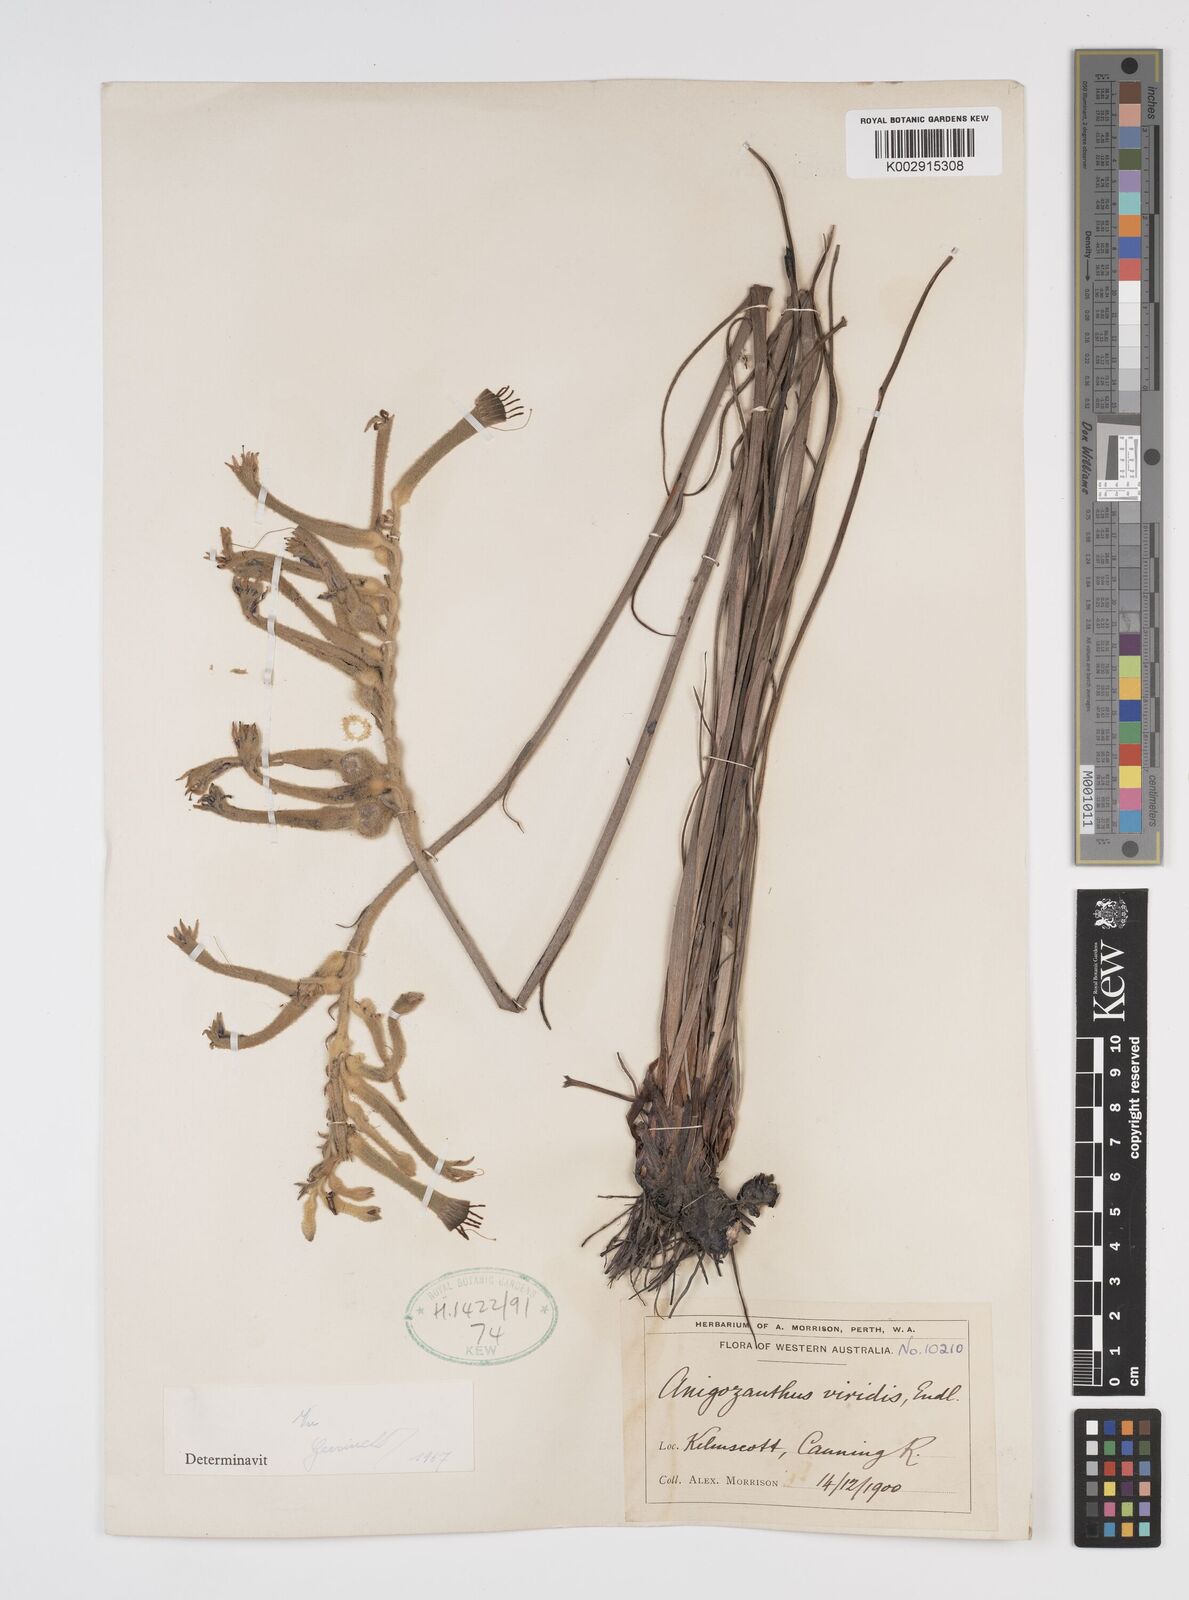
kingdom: Plantae
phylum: Tracheophyta
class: Liliopsida
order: Commelinales
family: Haemodoraceae
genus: Anigozanthos
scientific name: Anigozanthos viridis
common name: Green kangaroo-paw
